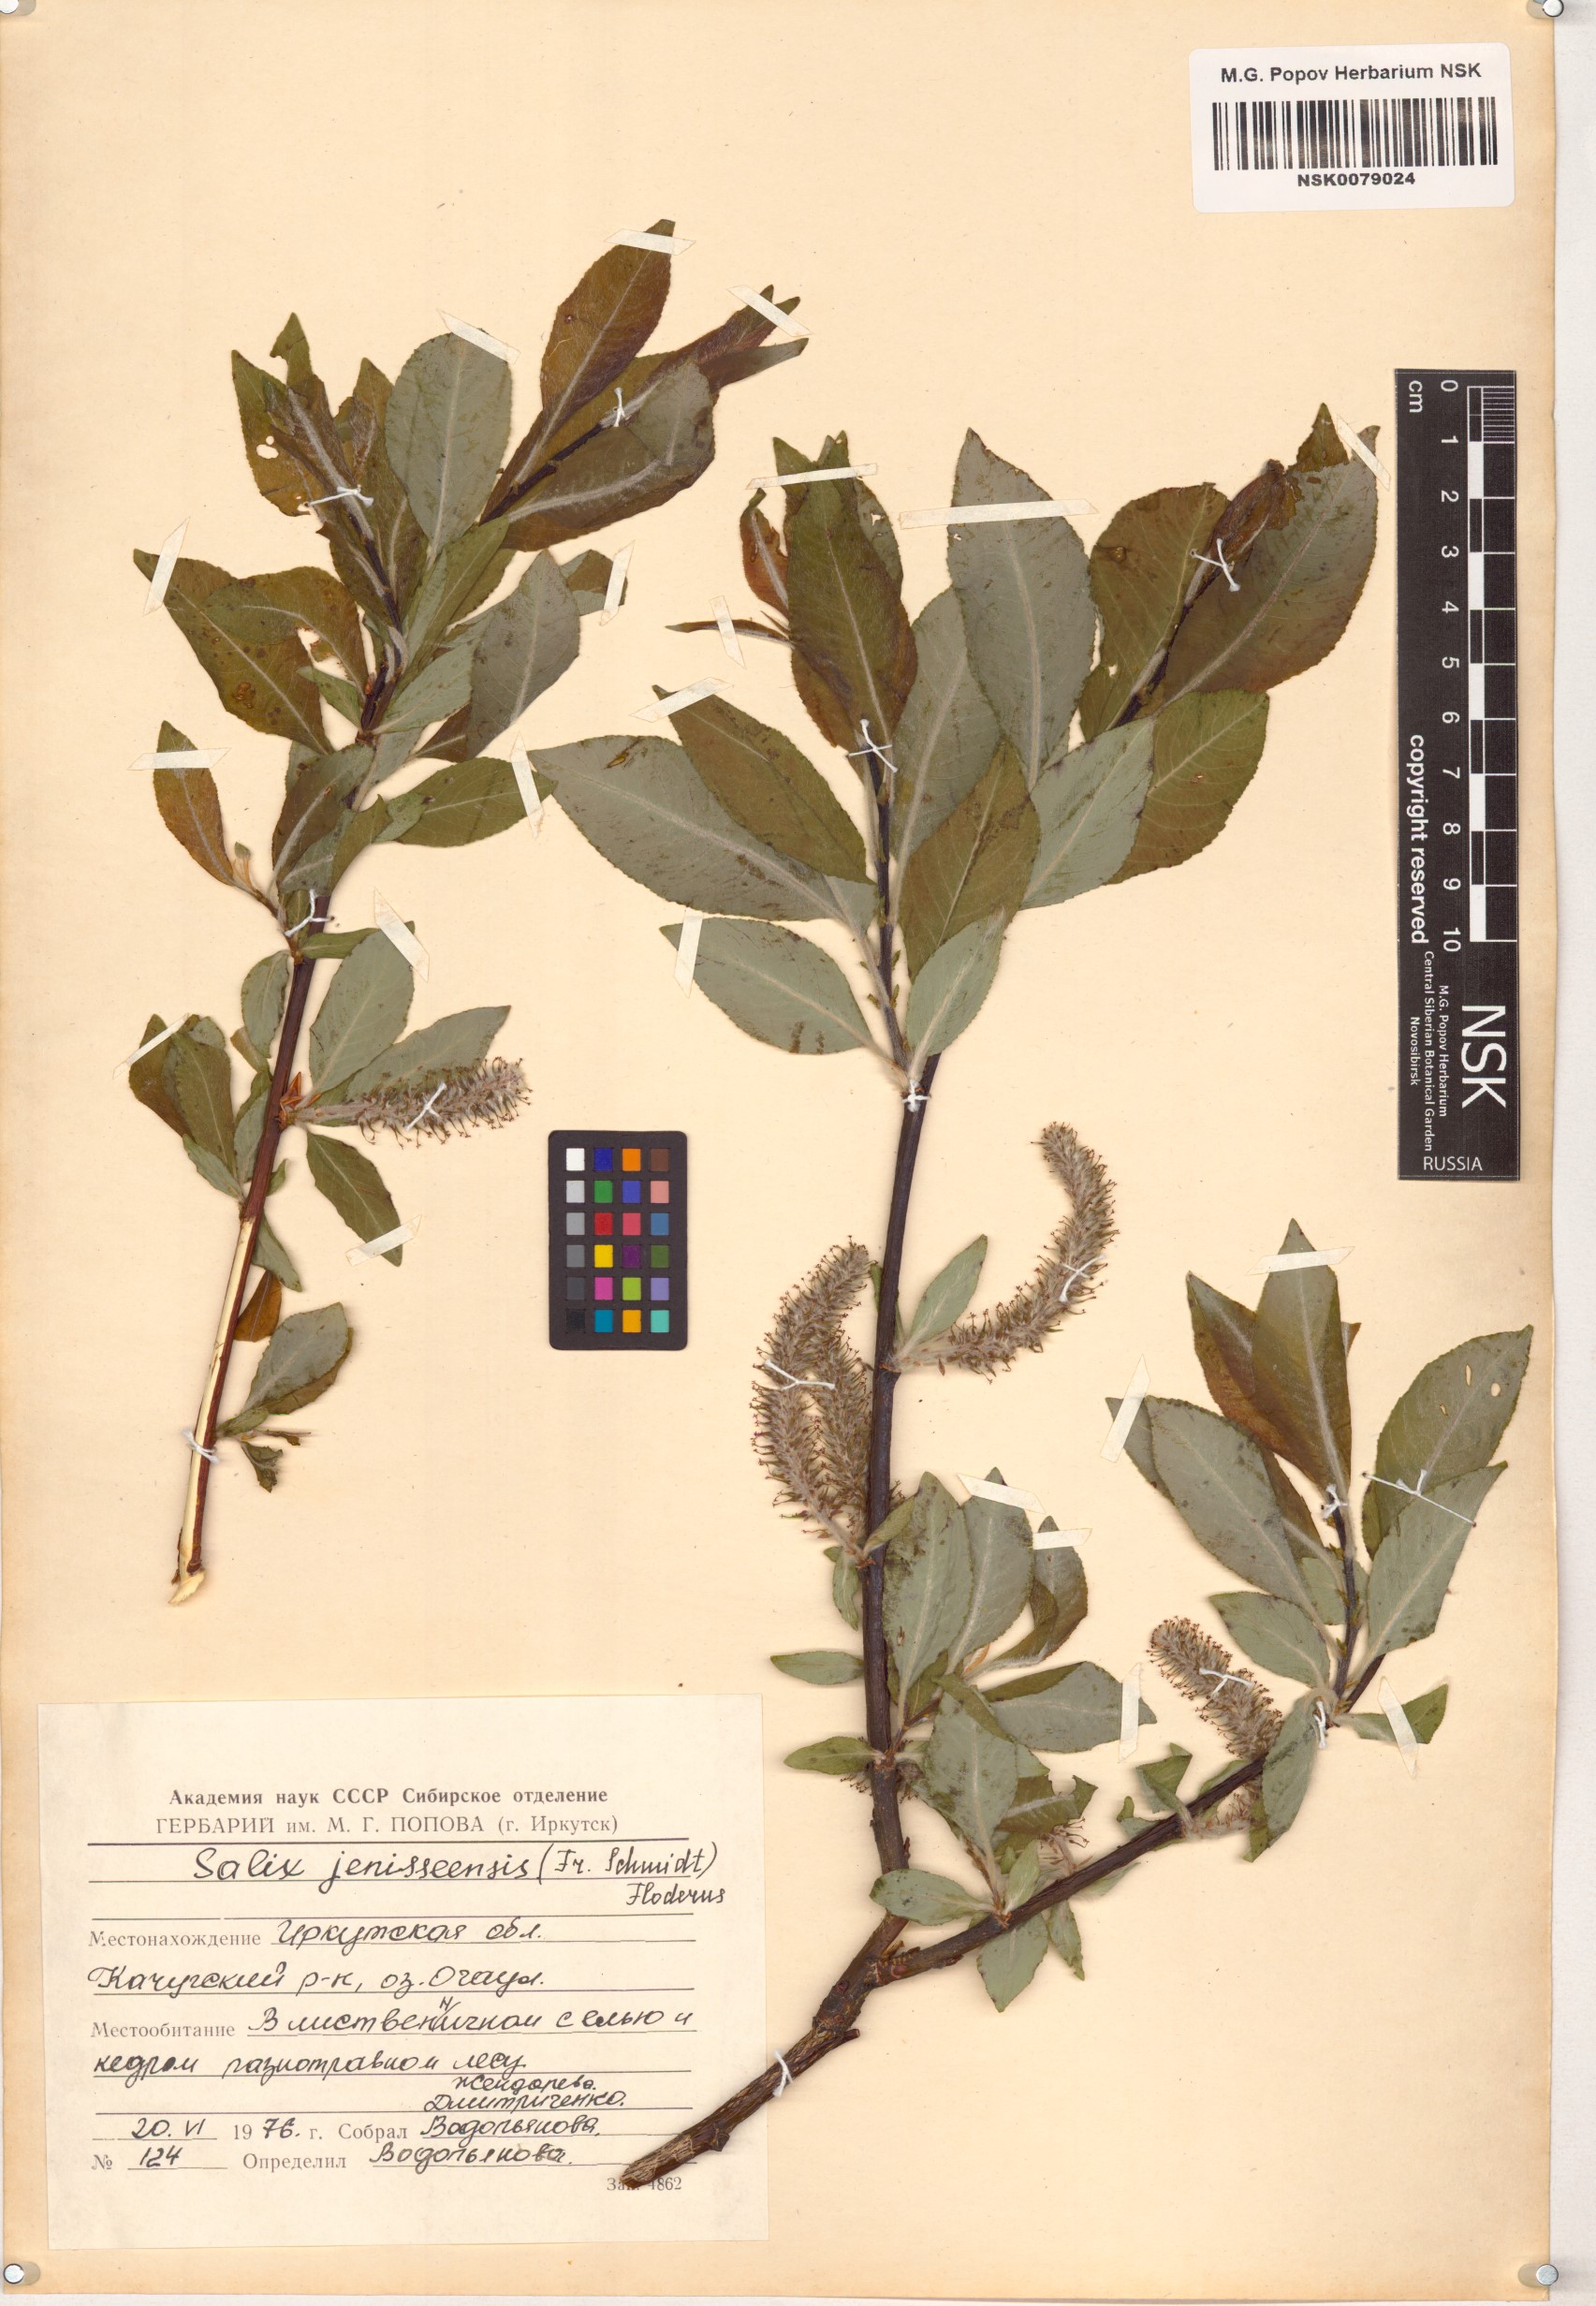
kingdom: Plantae
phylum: Tracheophyta
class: Magnoliopsida
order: Malpighiales
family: Salicaceae
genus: Salix
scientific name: Salix jenisseensis
